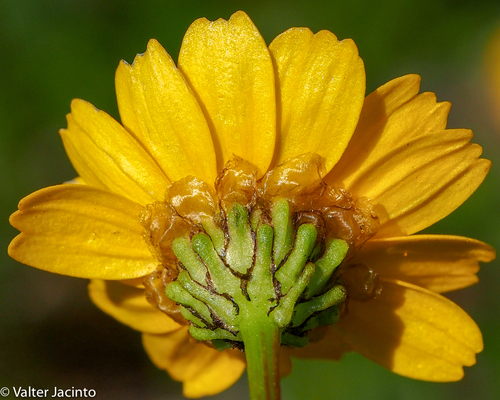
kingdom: Plantae
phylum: Tracheophyta
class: Magnoliopsida
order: Asterales
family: Asteraceae
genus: Glossopappus
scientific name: Glossopappus macrotus
